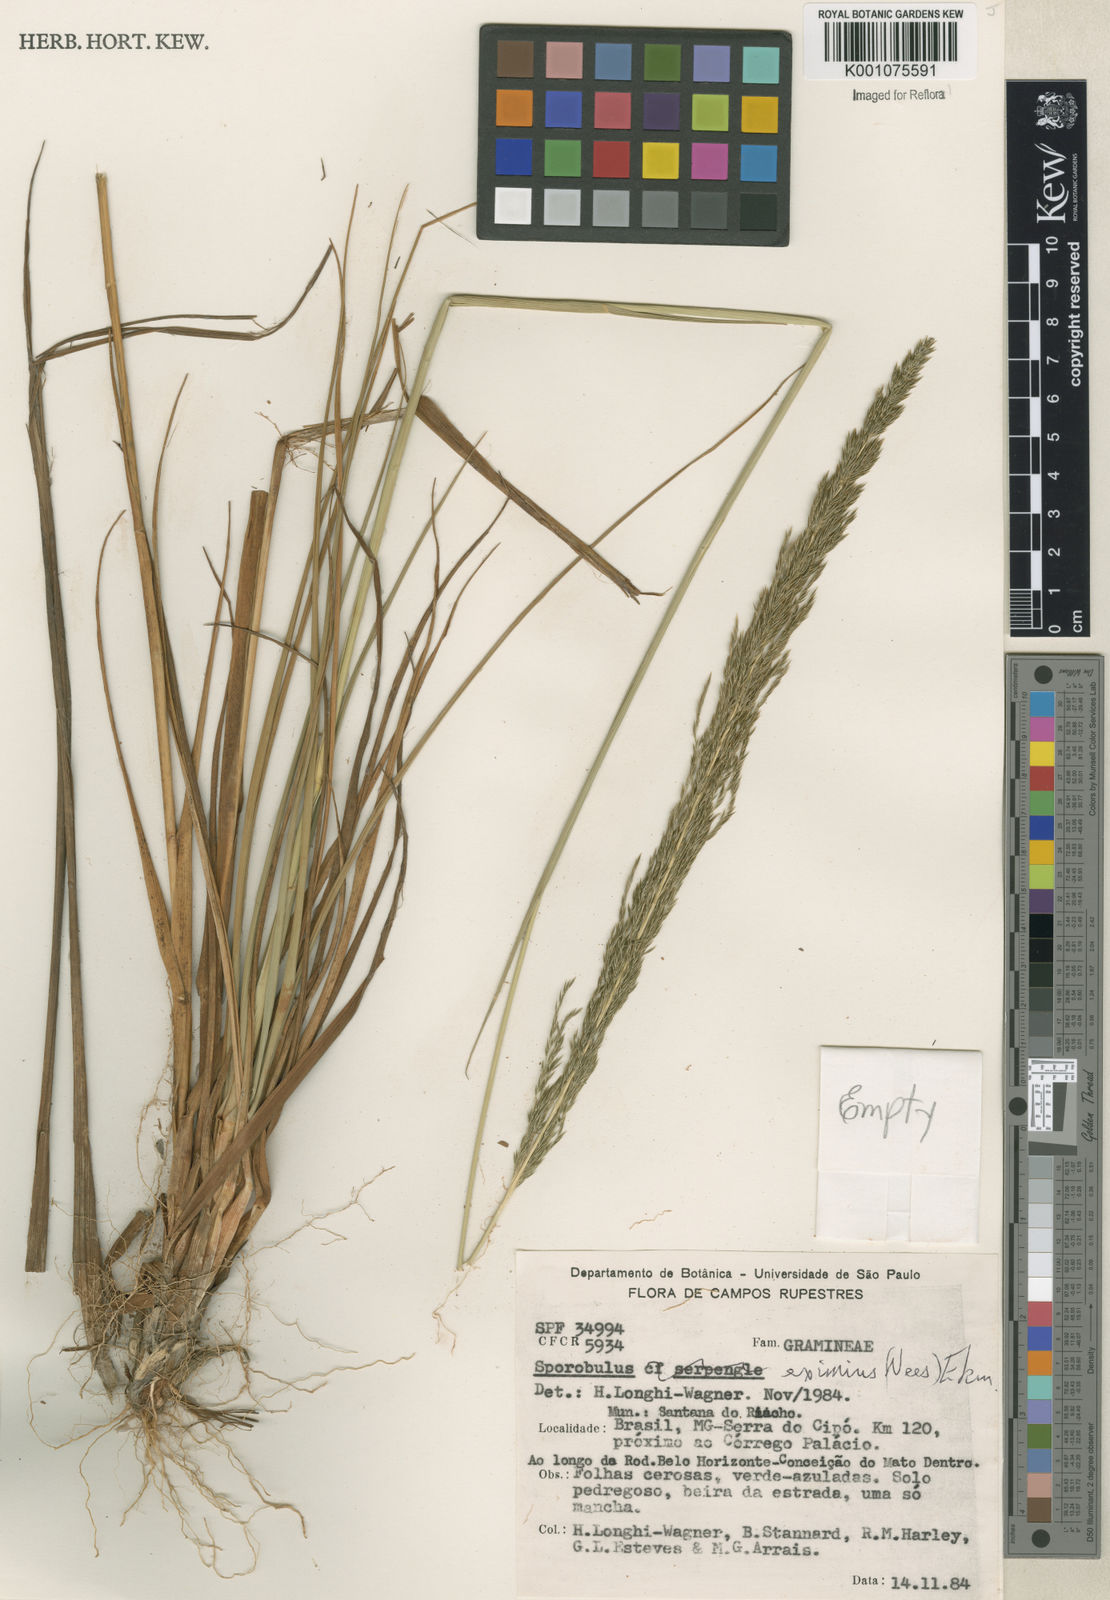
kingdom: Plantae
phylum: Tracheophyta
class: Liliopsida
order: Poales
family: Poaceae
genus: Sporobolus
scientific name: Sporobolus eximius
